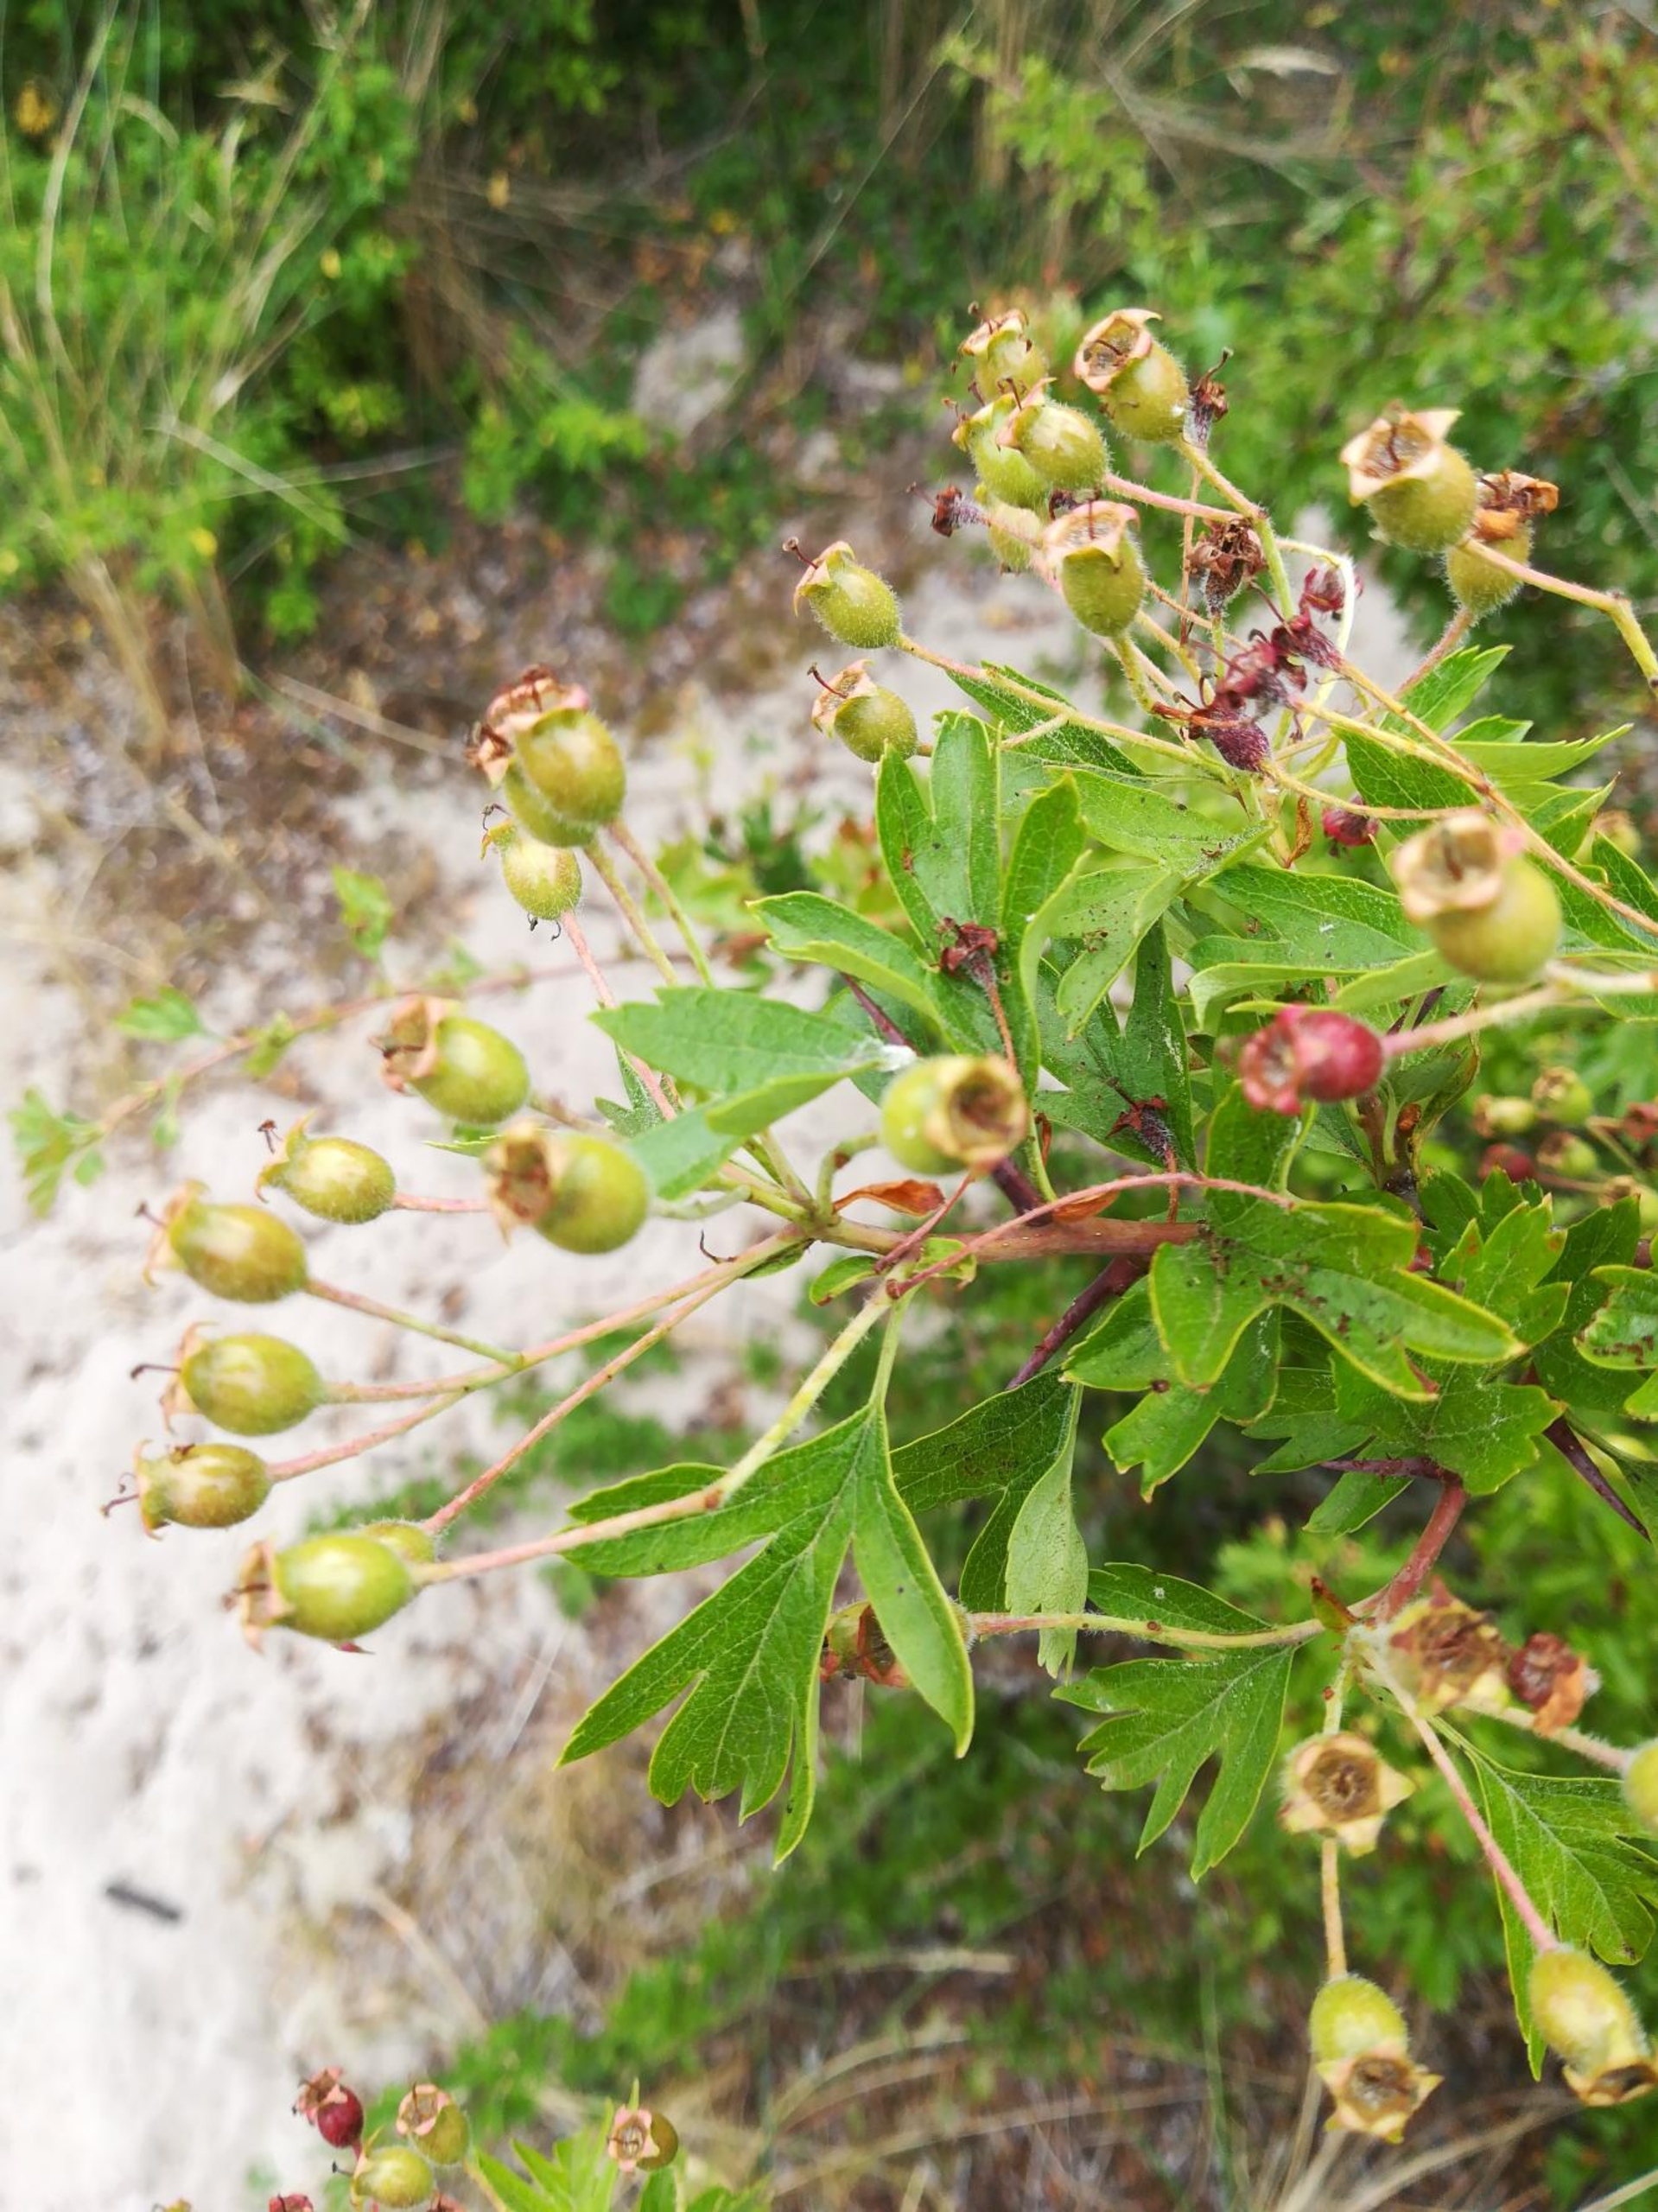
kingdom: Plantae
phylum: Tracheophyta
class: Magnoliopsida
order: Rosales
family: Rosaceae
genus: Crataegus
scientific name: Crataegus monogyna
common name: Engriflet hvidtjørn
